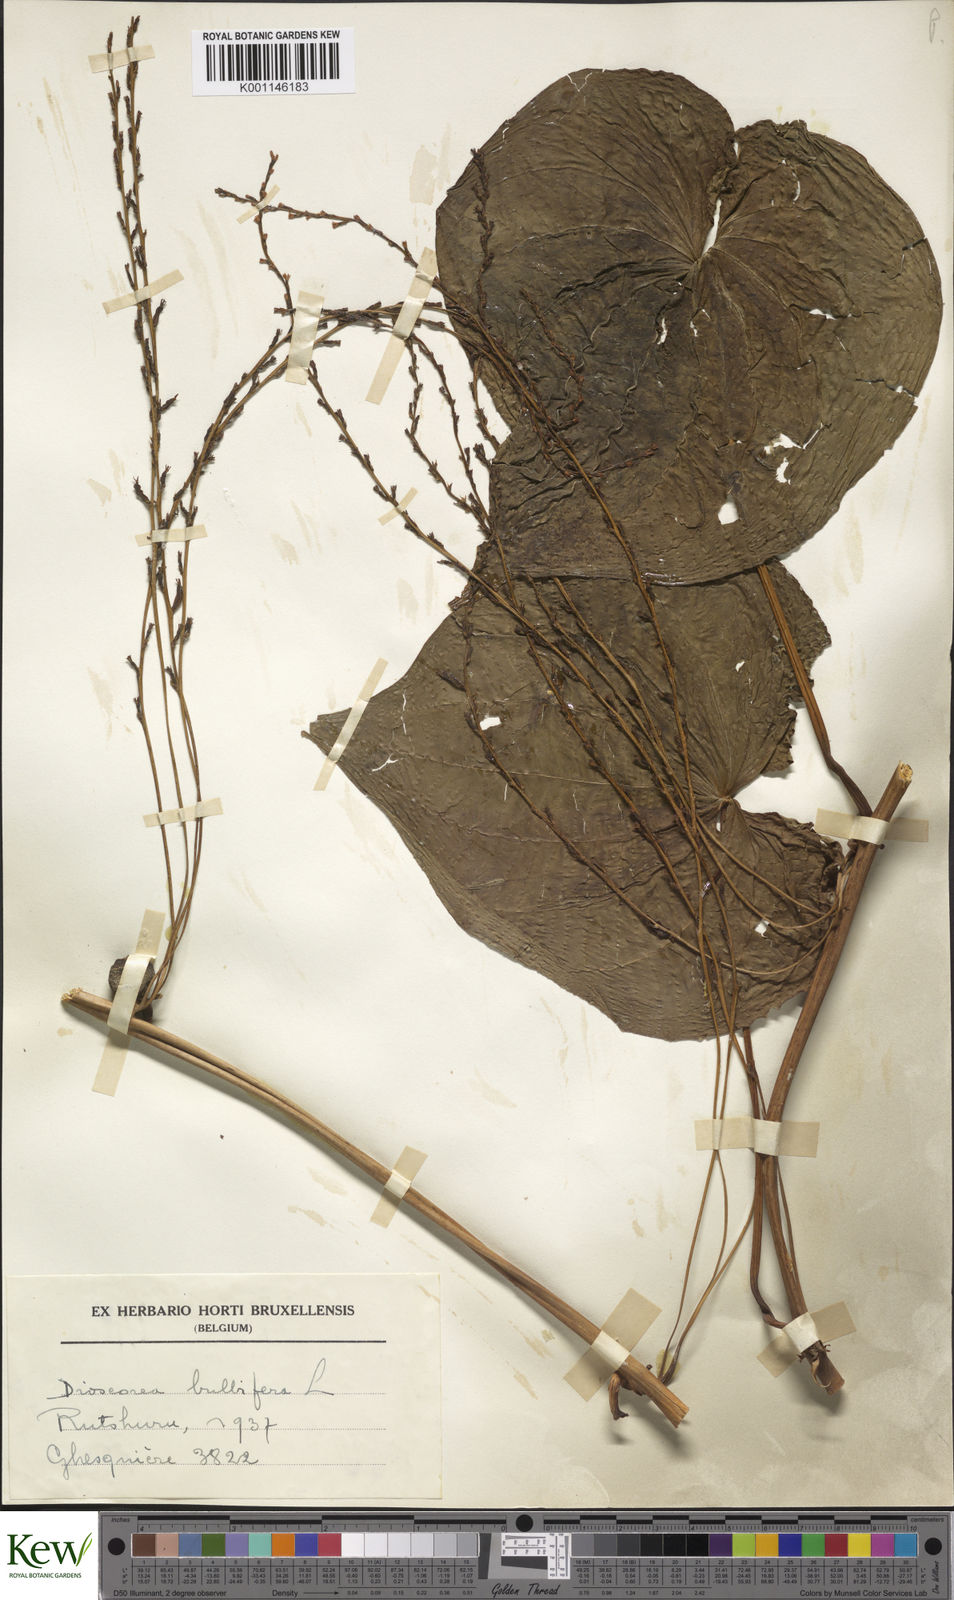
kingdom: Plantae
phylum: Tracheophyta
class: Liliopsida
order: Dioscoreales
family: Dioscoreaceae
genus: Dioscorea
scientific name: Dioscorea bulbifera
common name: Air yam
